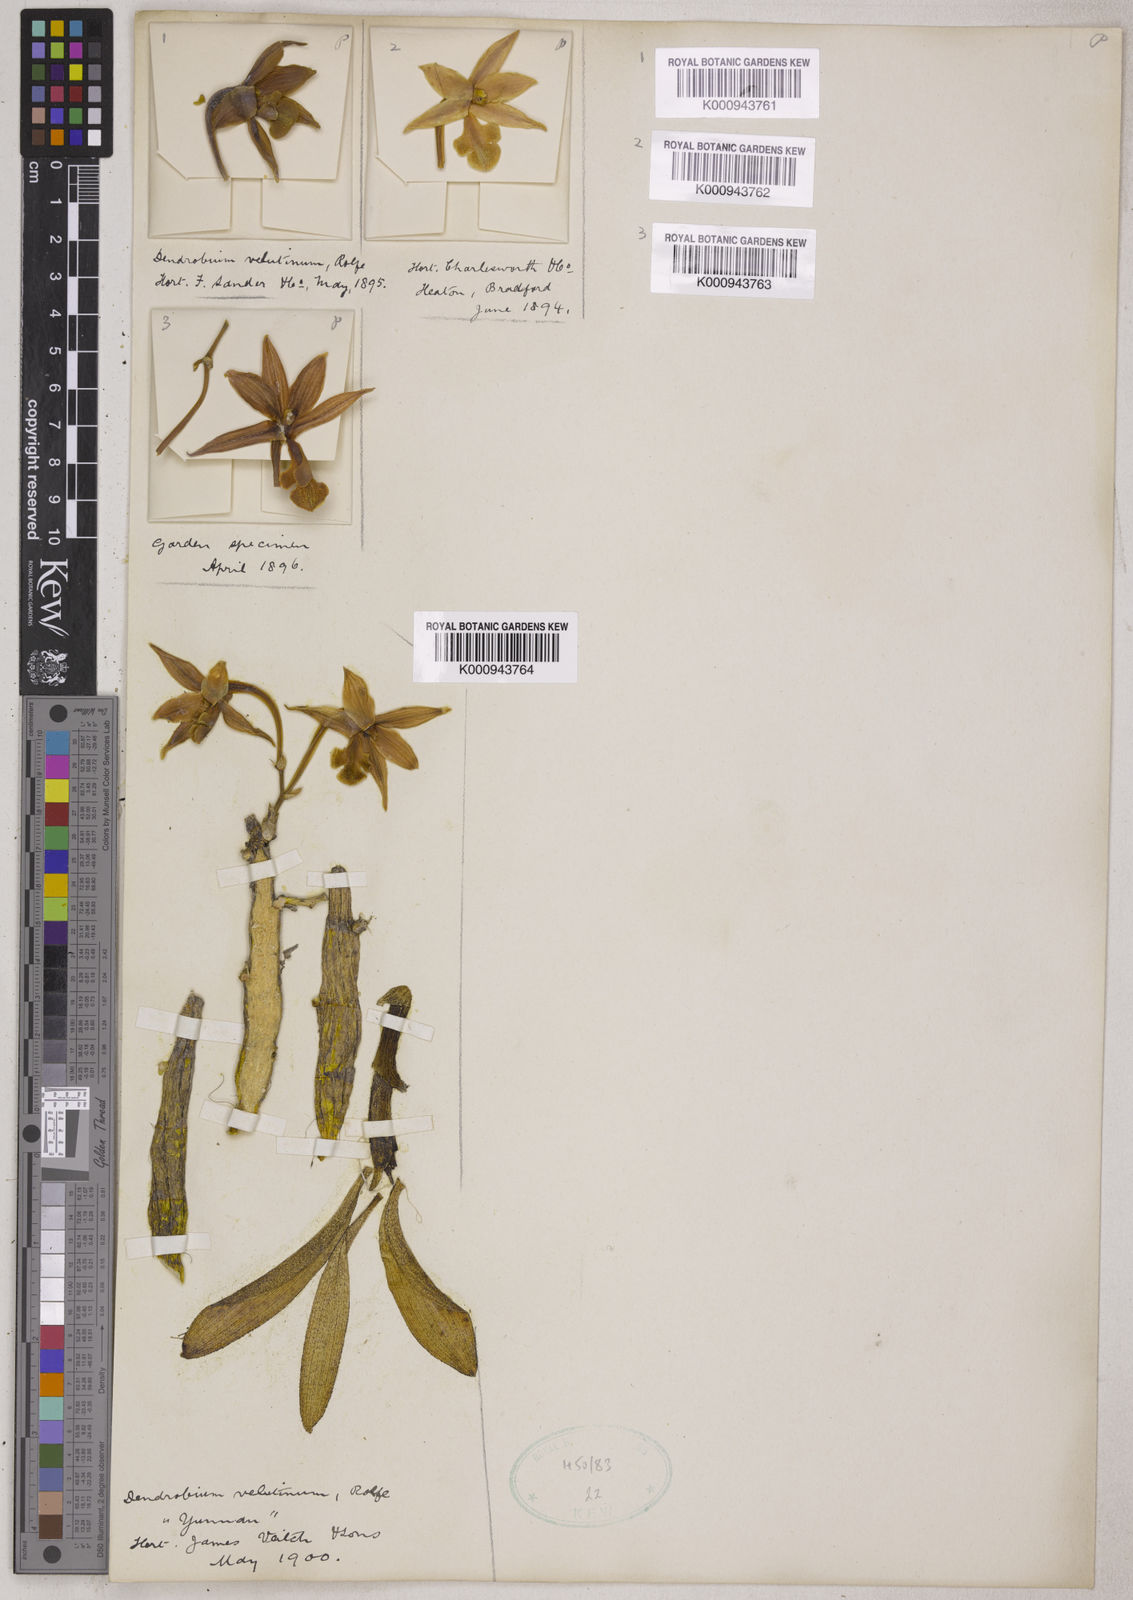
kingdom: Plantae
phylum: Tracheophyta
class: Liliopsida
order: Asparagales
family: Orchidaceae
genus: Dendrobium
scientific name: Dendrobium trigonopus
